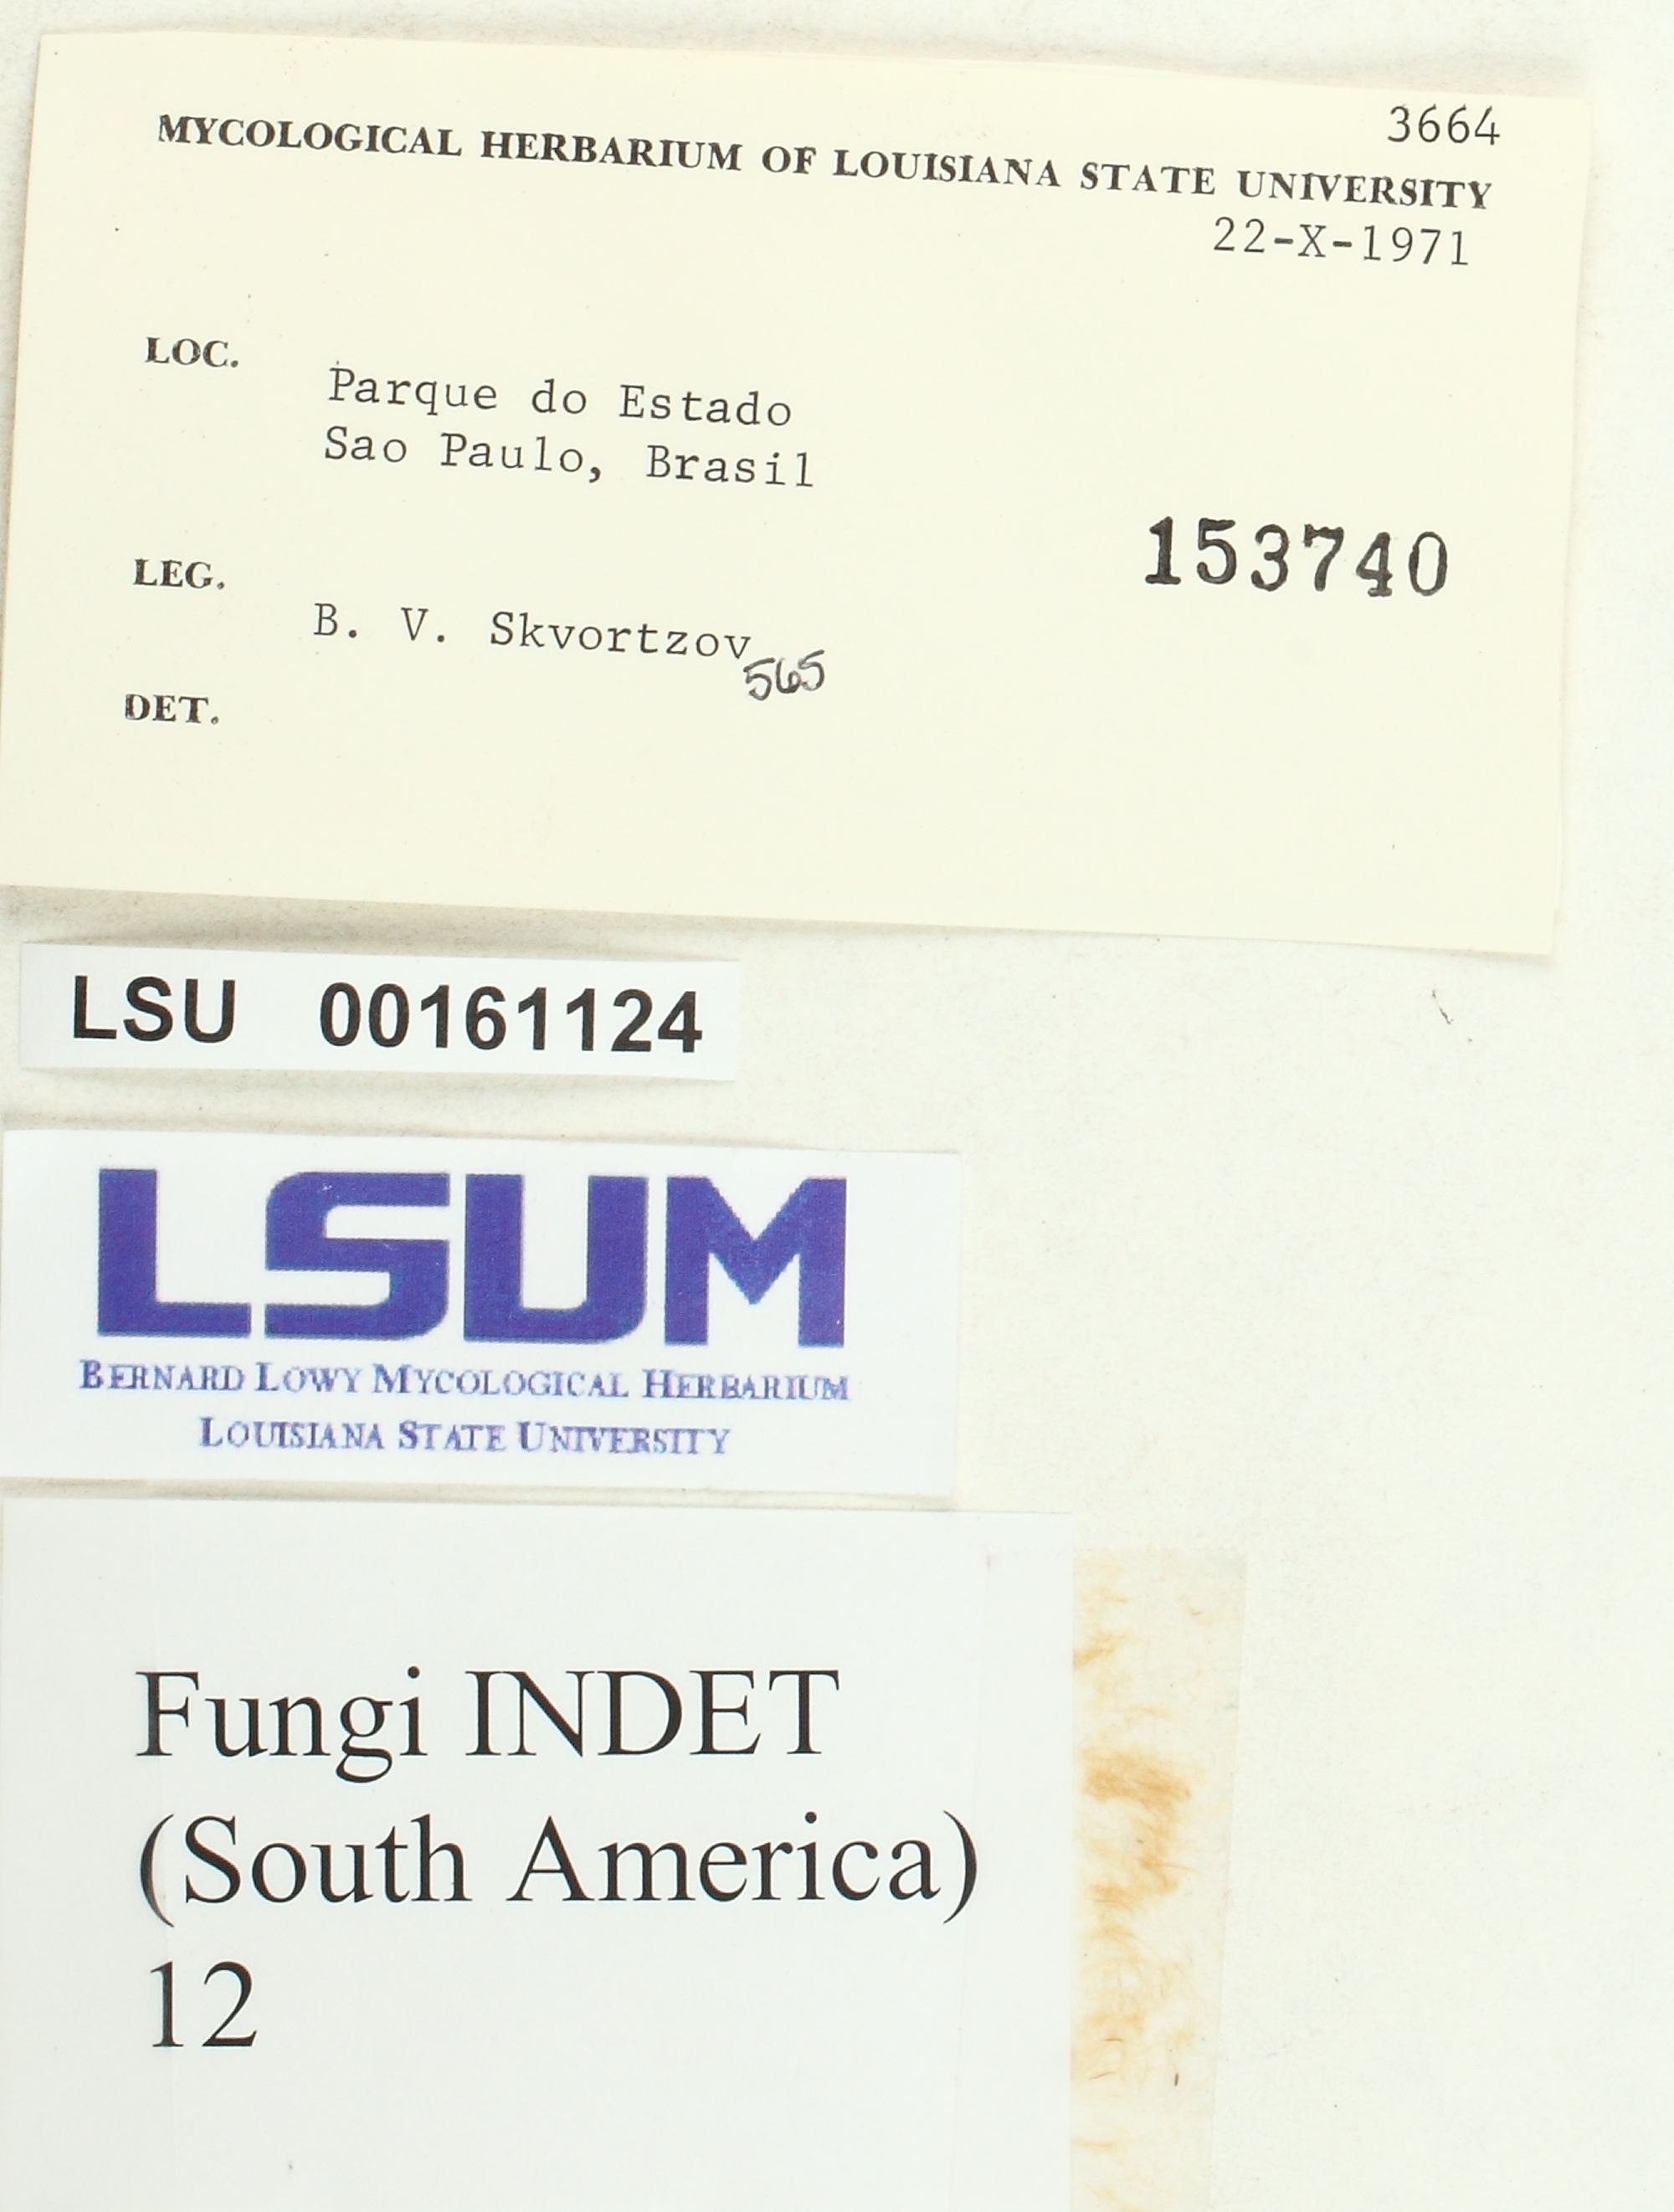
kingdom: Fungi
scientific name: Fungi
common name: Fungi
